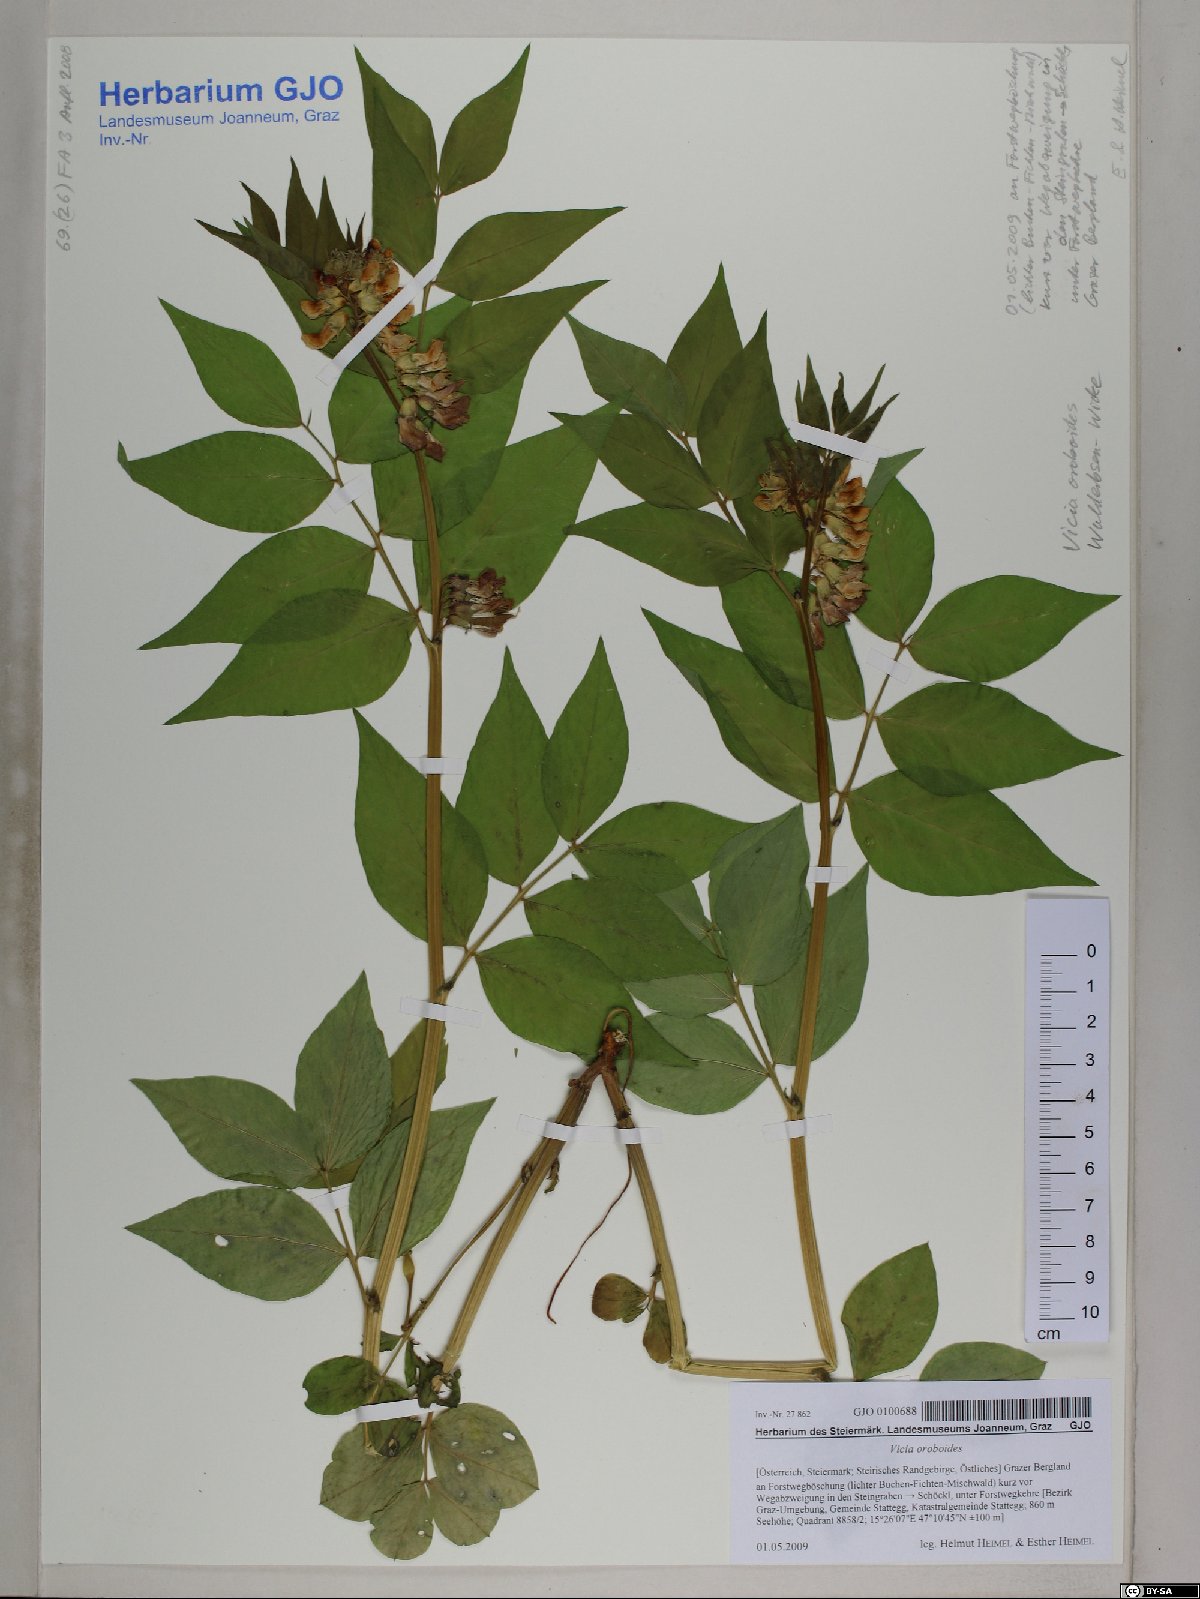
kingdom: Plantae
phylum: Tracheophyta
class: Magnoliopsida
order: Fabales
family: Fabaceae
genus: Vicia
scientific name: Vicia oroboides
